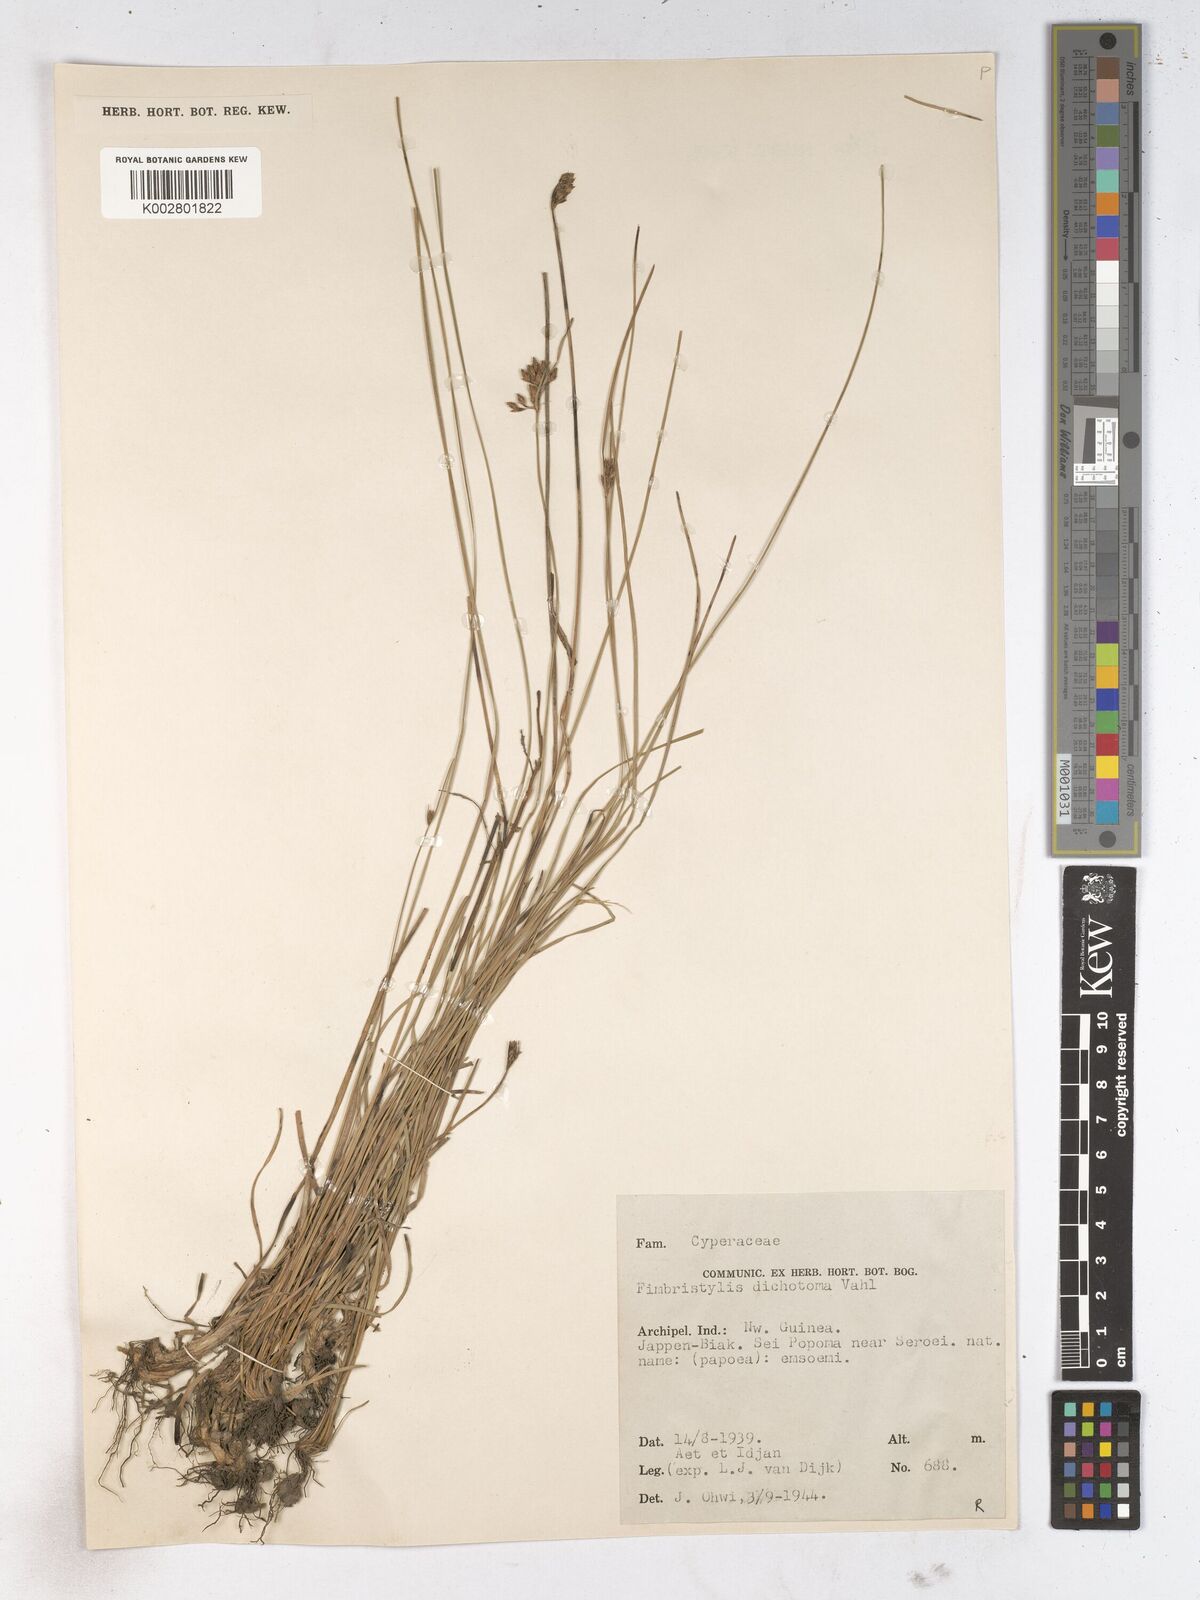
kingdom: Plantae
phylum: Tracheophyta
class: Liliopsida
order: Poales
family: Cyperaceae
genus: Fimbristylis
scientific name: Fimbristylis dichotoma
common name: Forked fimbry
